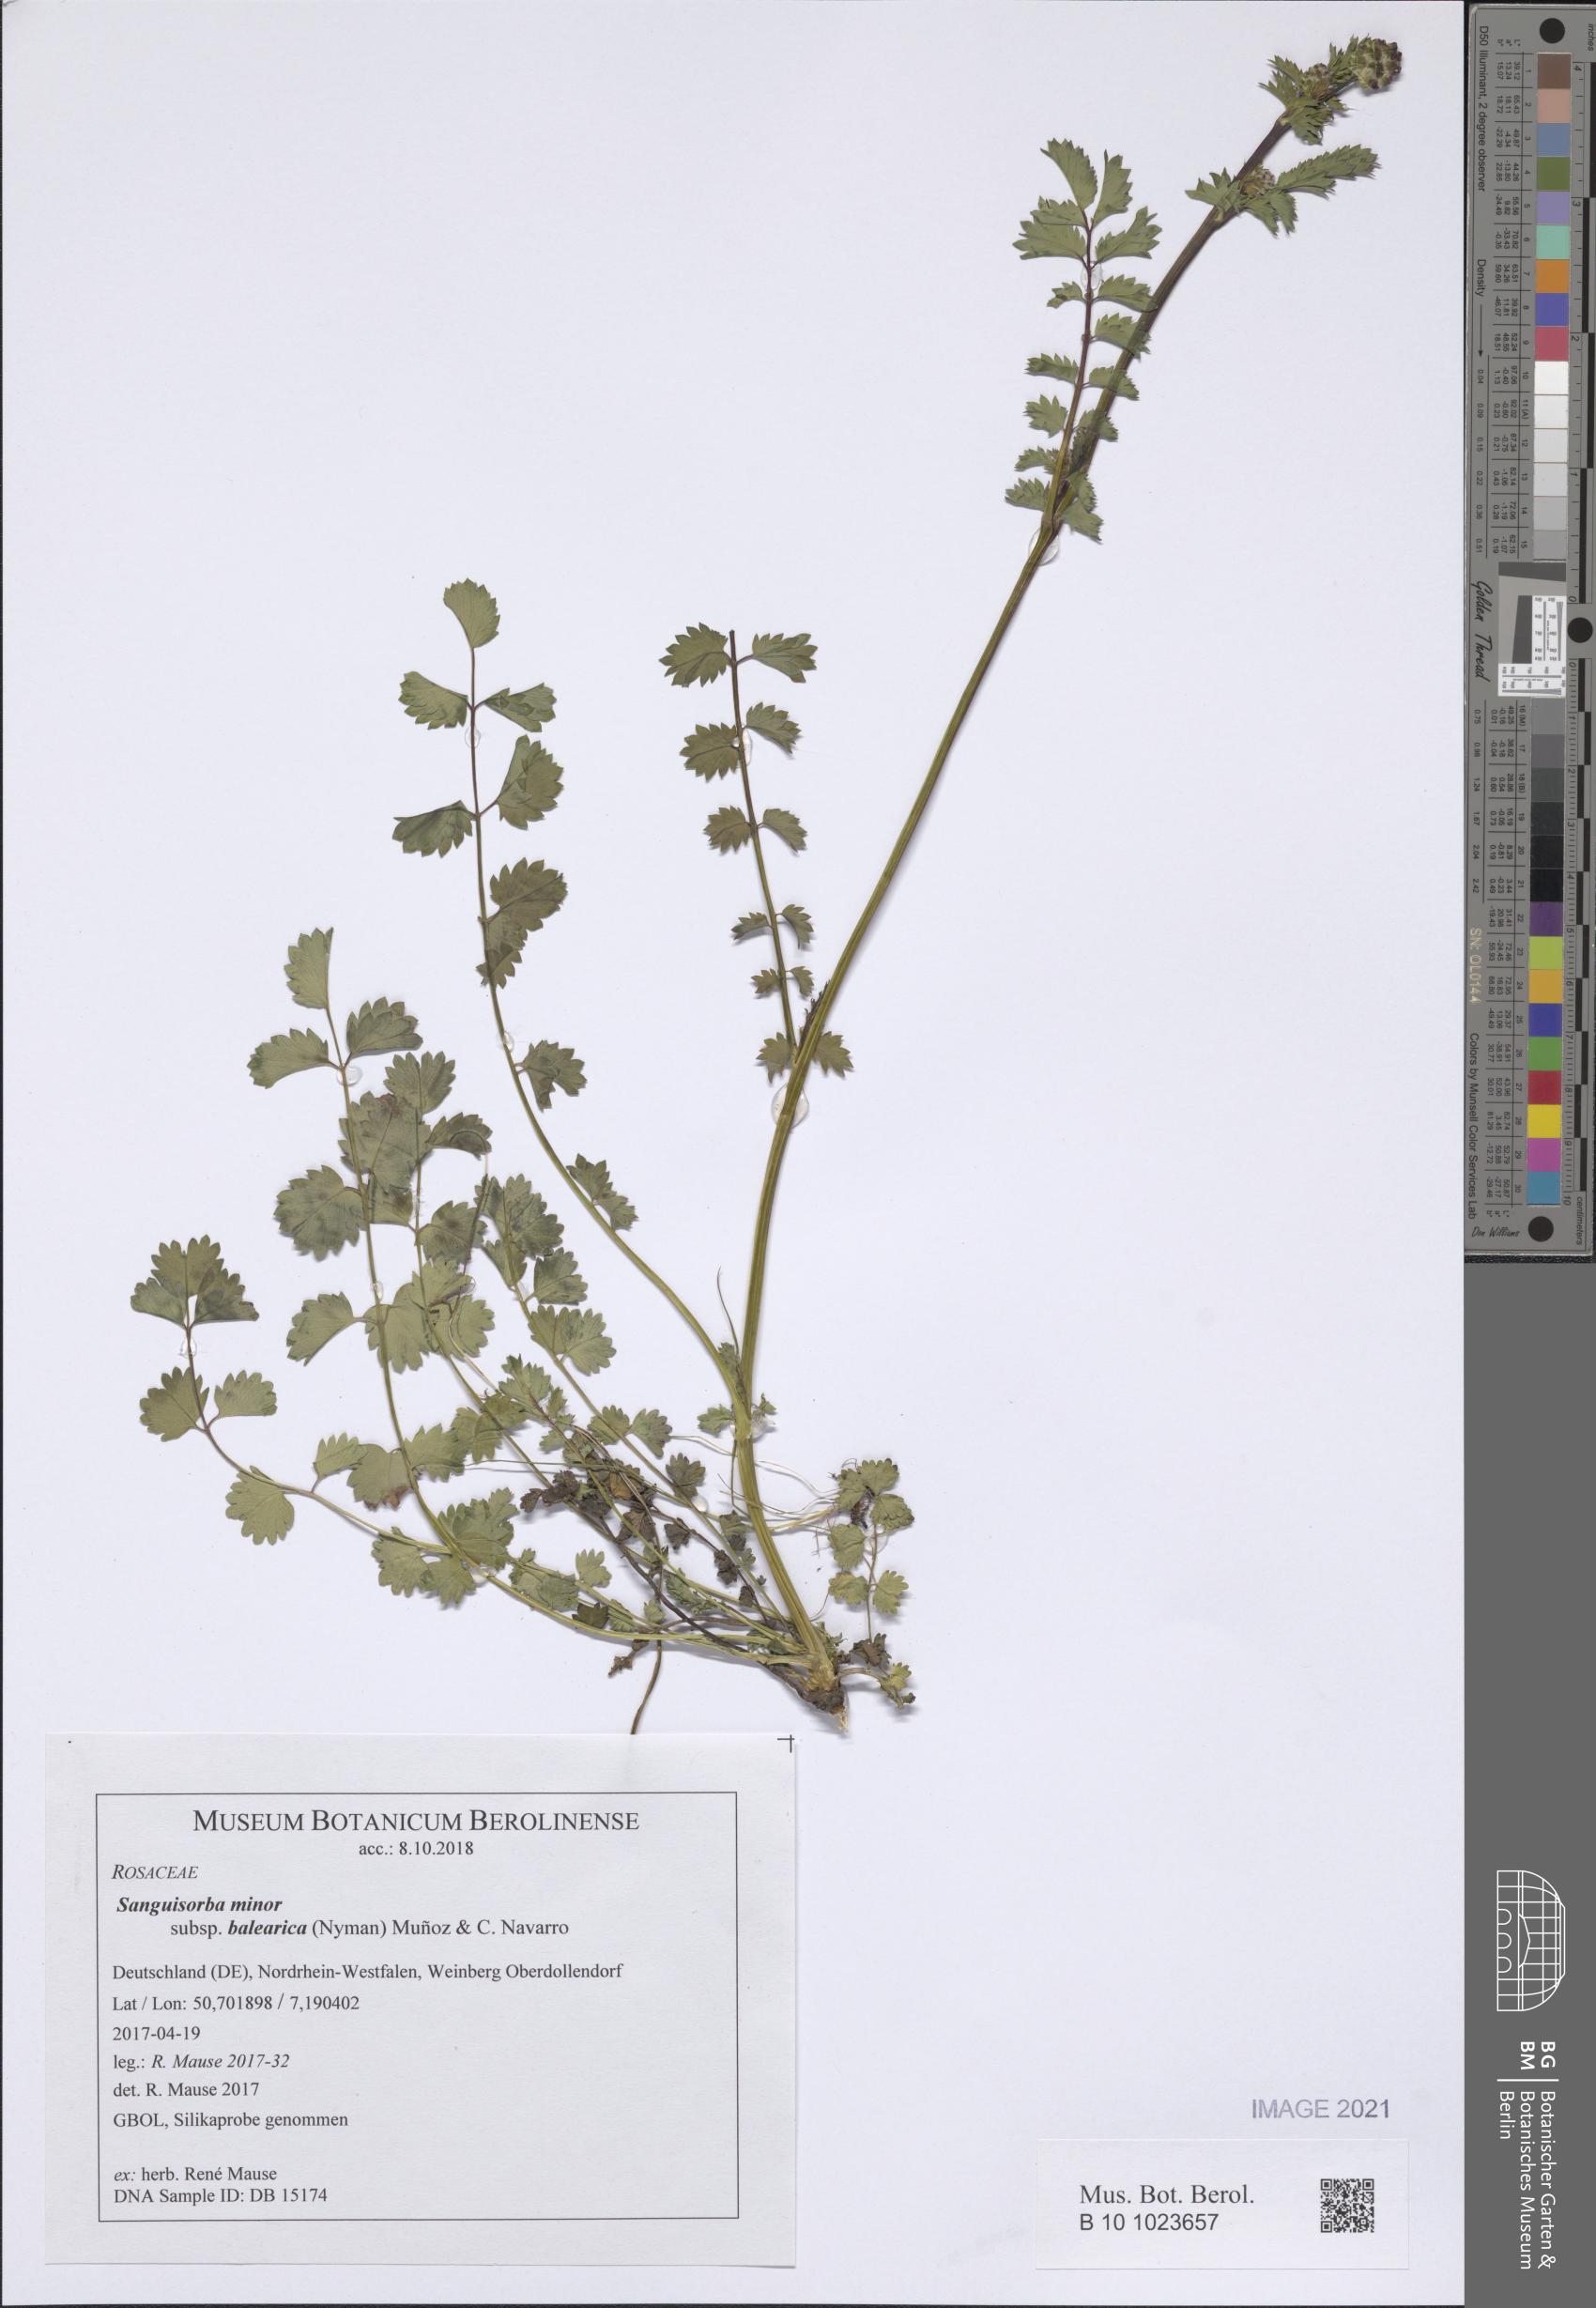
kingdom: Plantae
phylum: Tracheophyta
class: Magnoliopsida
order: Rosales
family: Rosaceae
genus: Poterium
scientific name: Poterium sanguisorba
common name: Salad burnet
